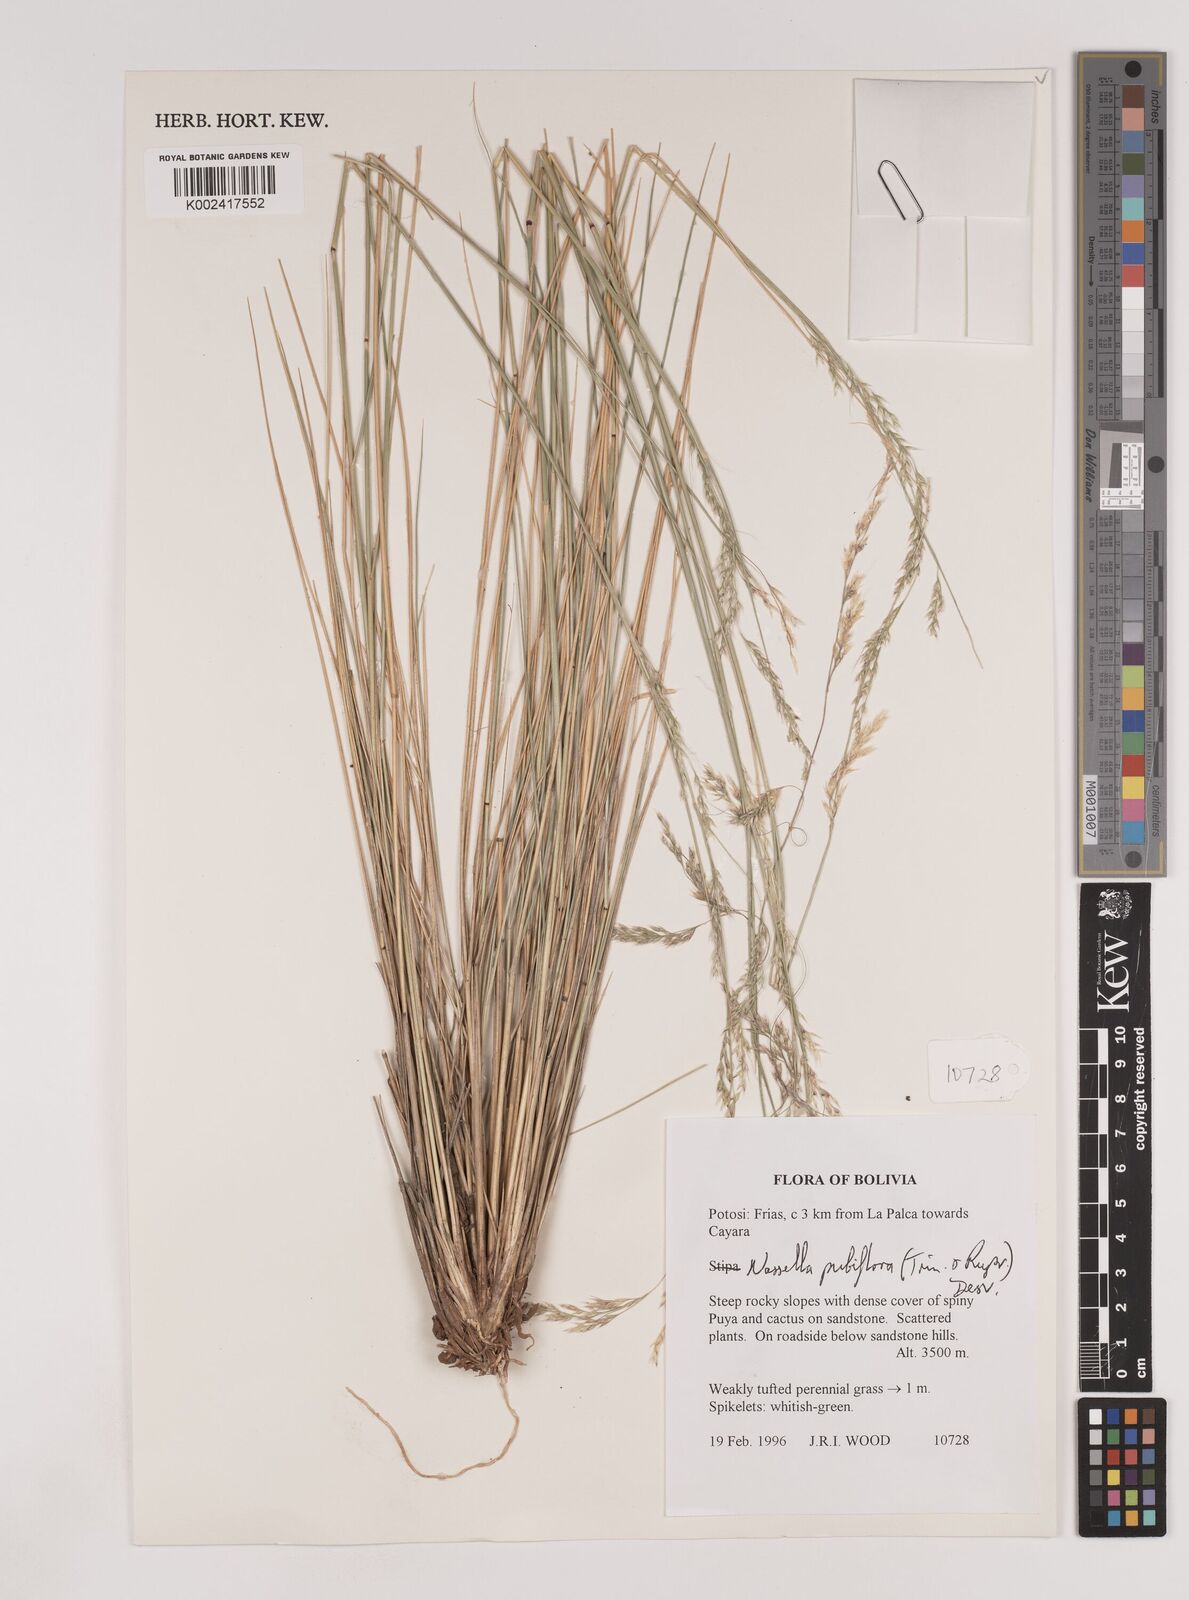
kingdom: Plantae
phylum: Tracheophyta
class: Liliopsida
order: Poales
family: Poaceae
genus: Nassella
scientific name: Nassella pubiflora
